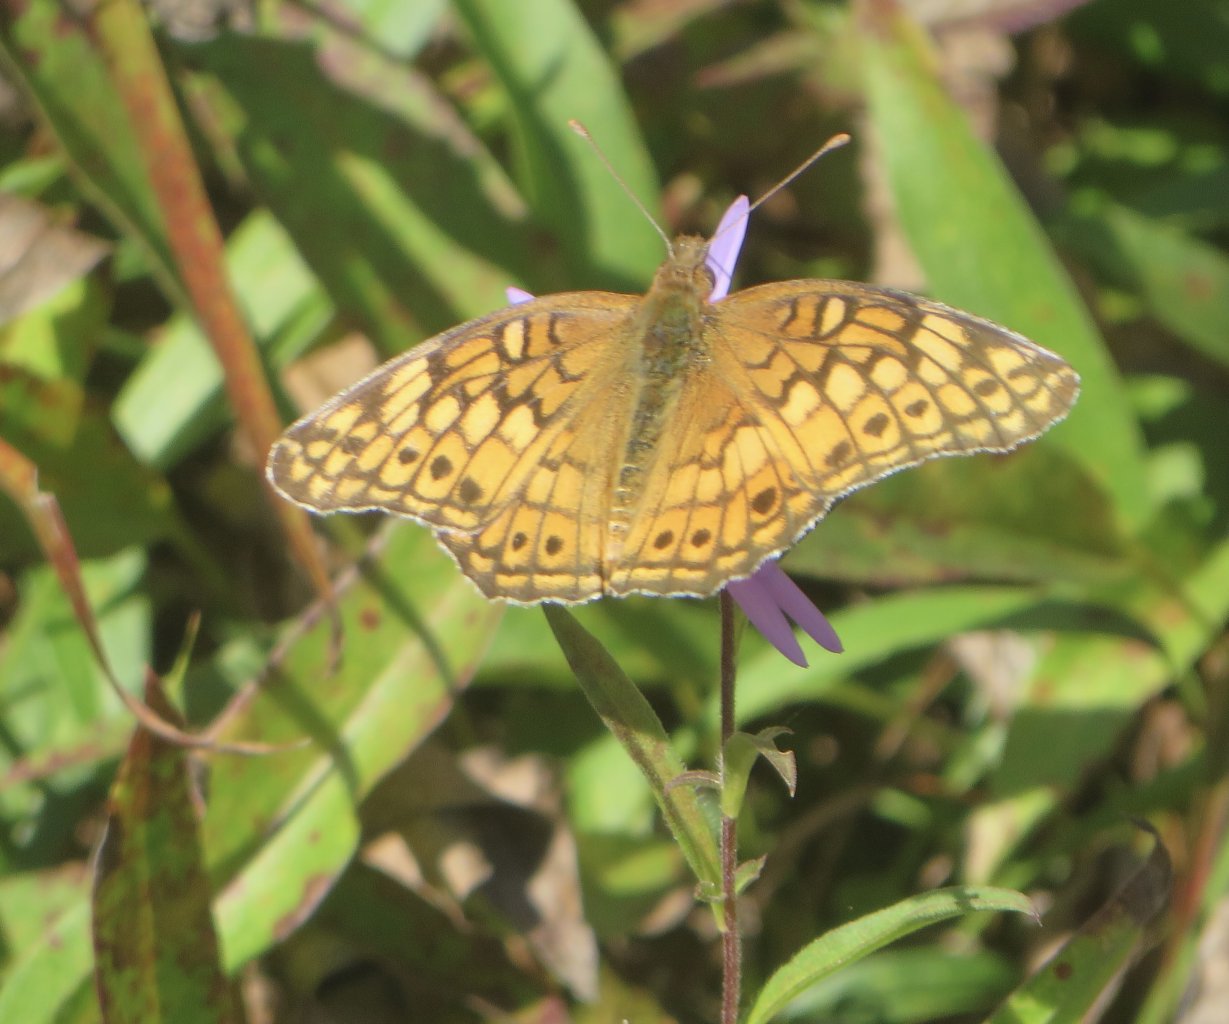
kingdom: Animalia
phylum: Arthropoda
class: Insecta
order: Lepidoptera
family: Nymphalidae
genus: Euptoieta
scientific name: Euptoieta claudia
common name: Variegated Fritillary
